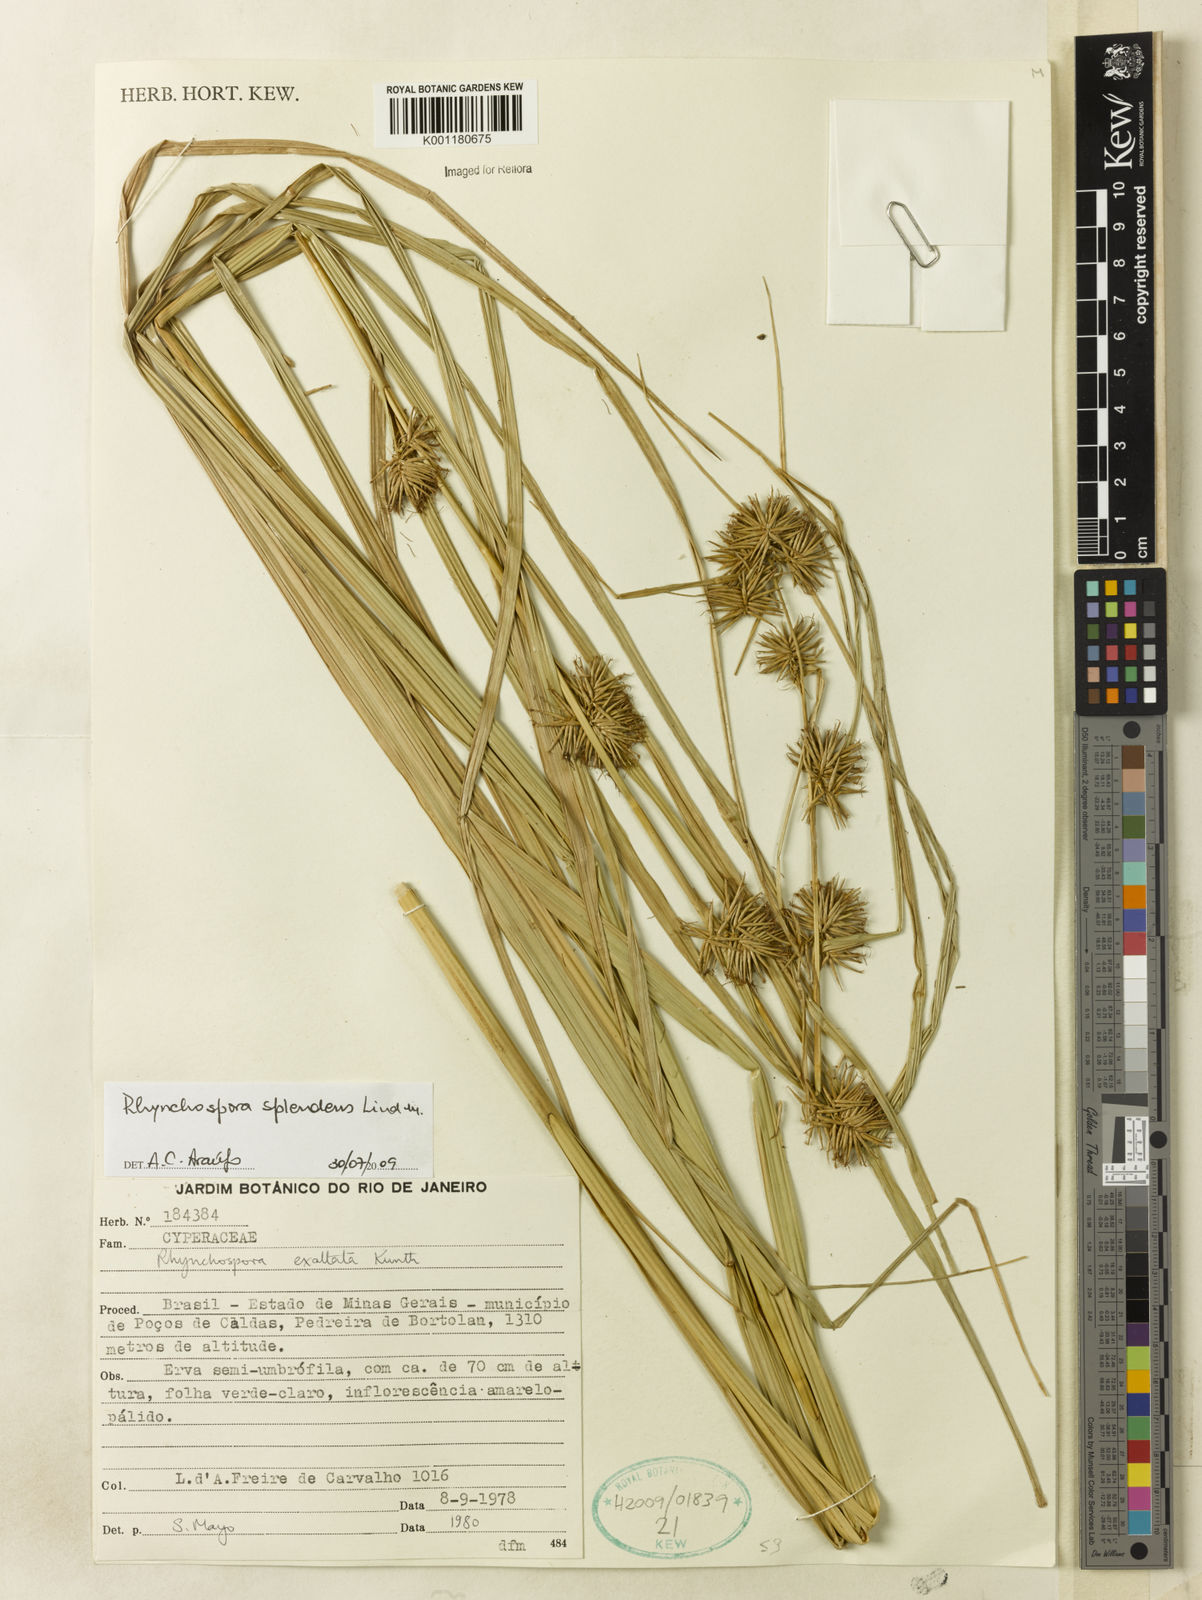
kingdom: Plantae
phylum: Tracheophyta
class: Liliopsida
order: Poales
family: Cyperaceae
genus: Rhynchospora
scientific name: Rhynchospora splendens
